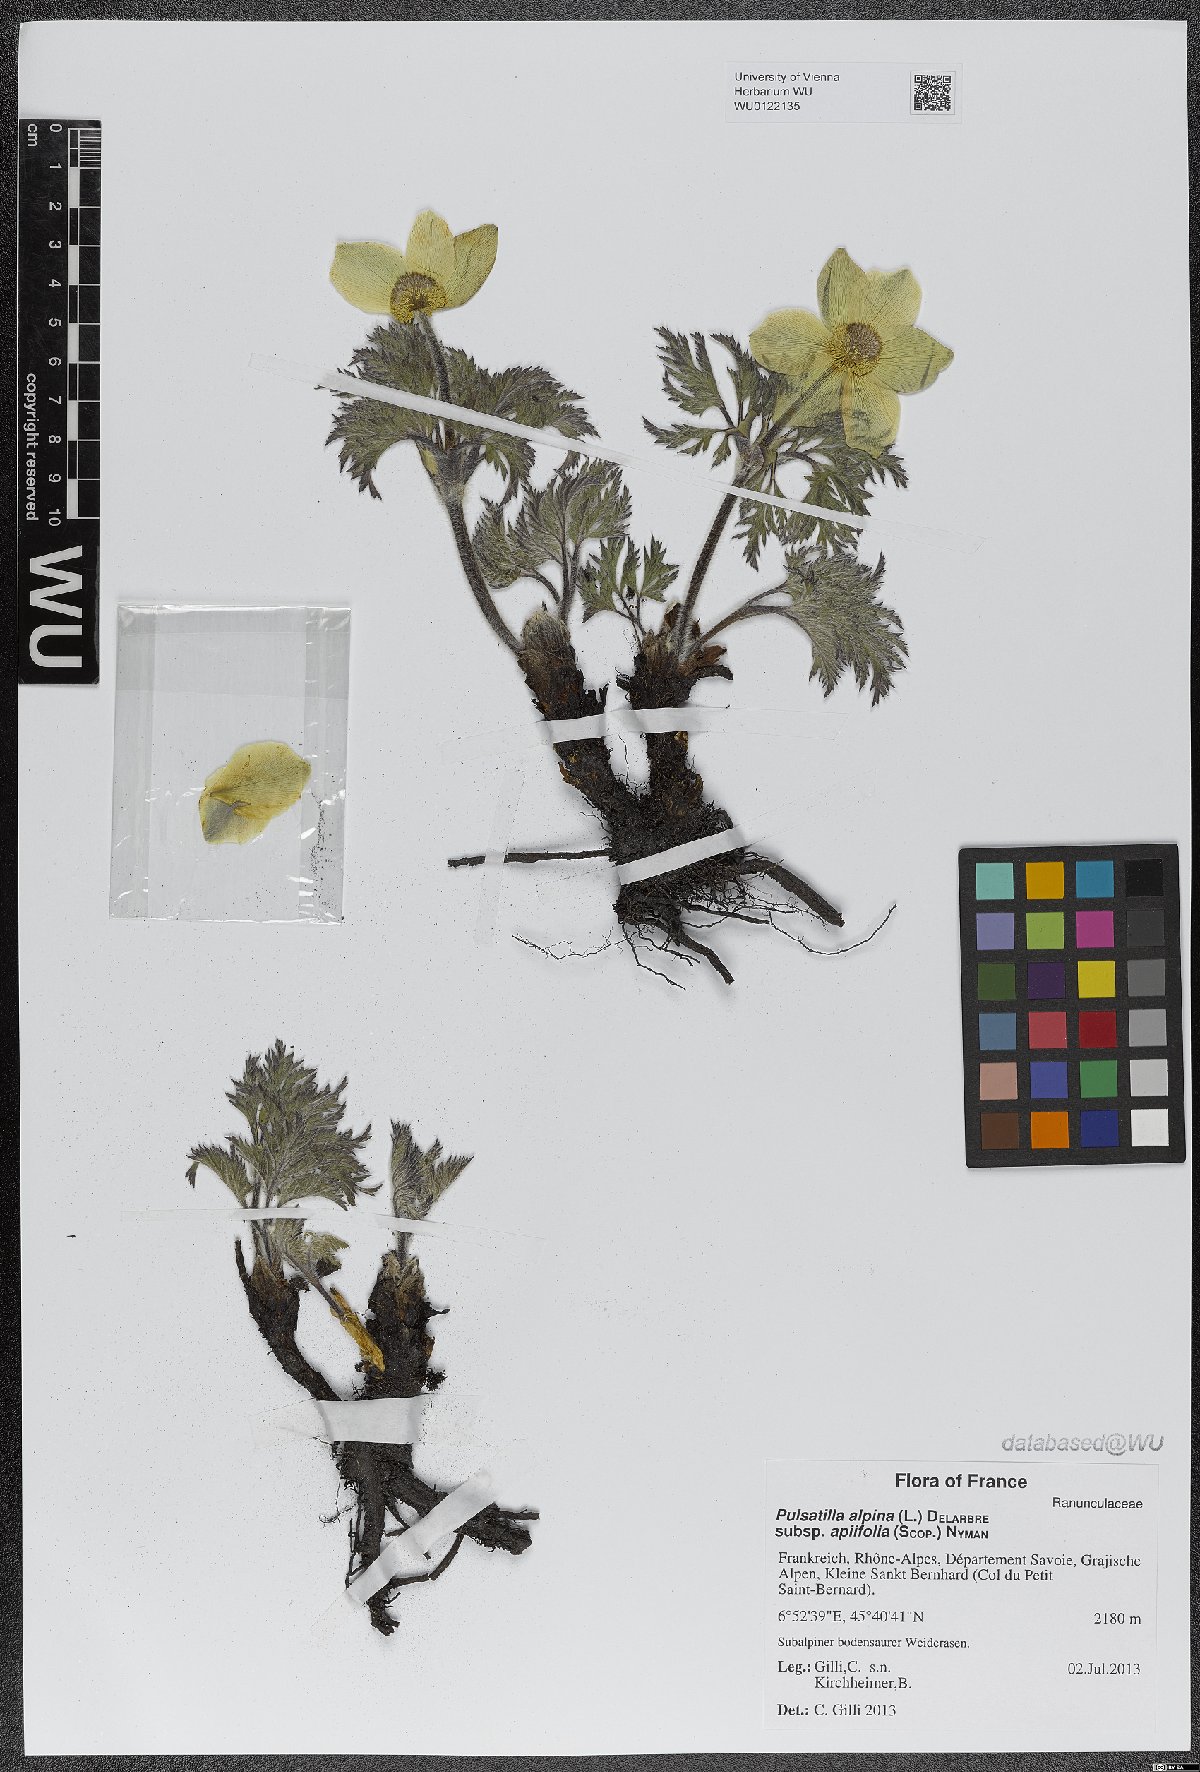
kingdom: Plantae
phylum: Tracheophyta
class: Magnoliopsida
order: Ranunculales
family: Ranunculaceae
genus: Pulsatilla
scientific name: Pulsatilla alpina
